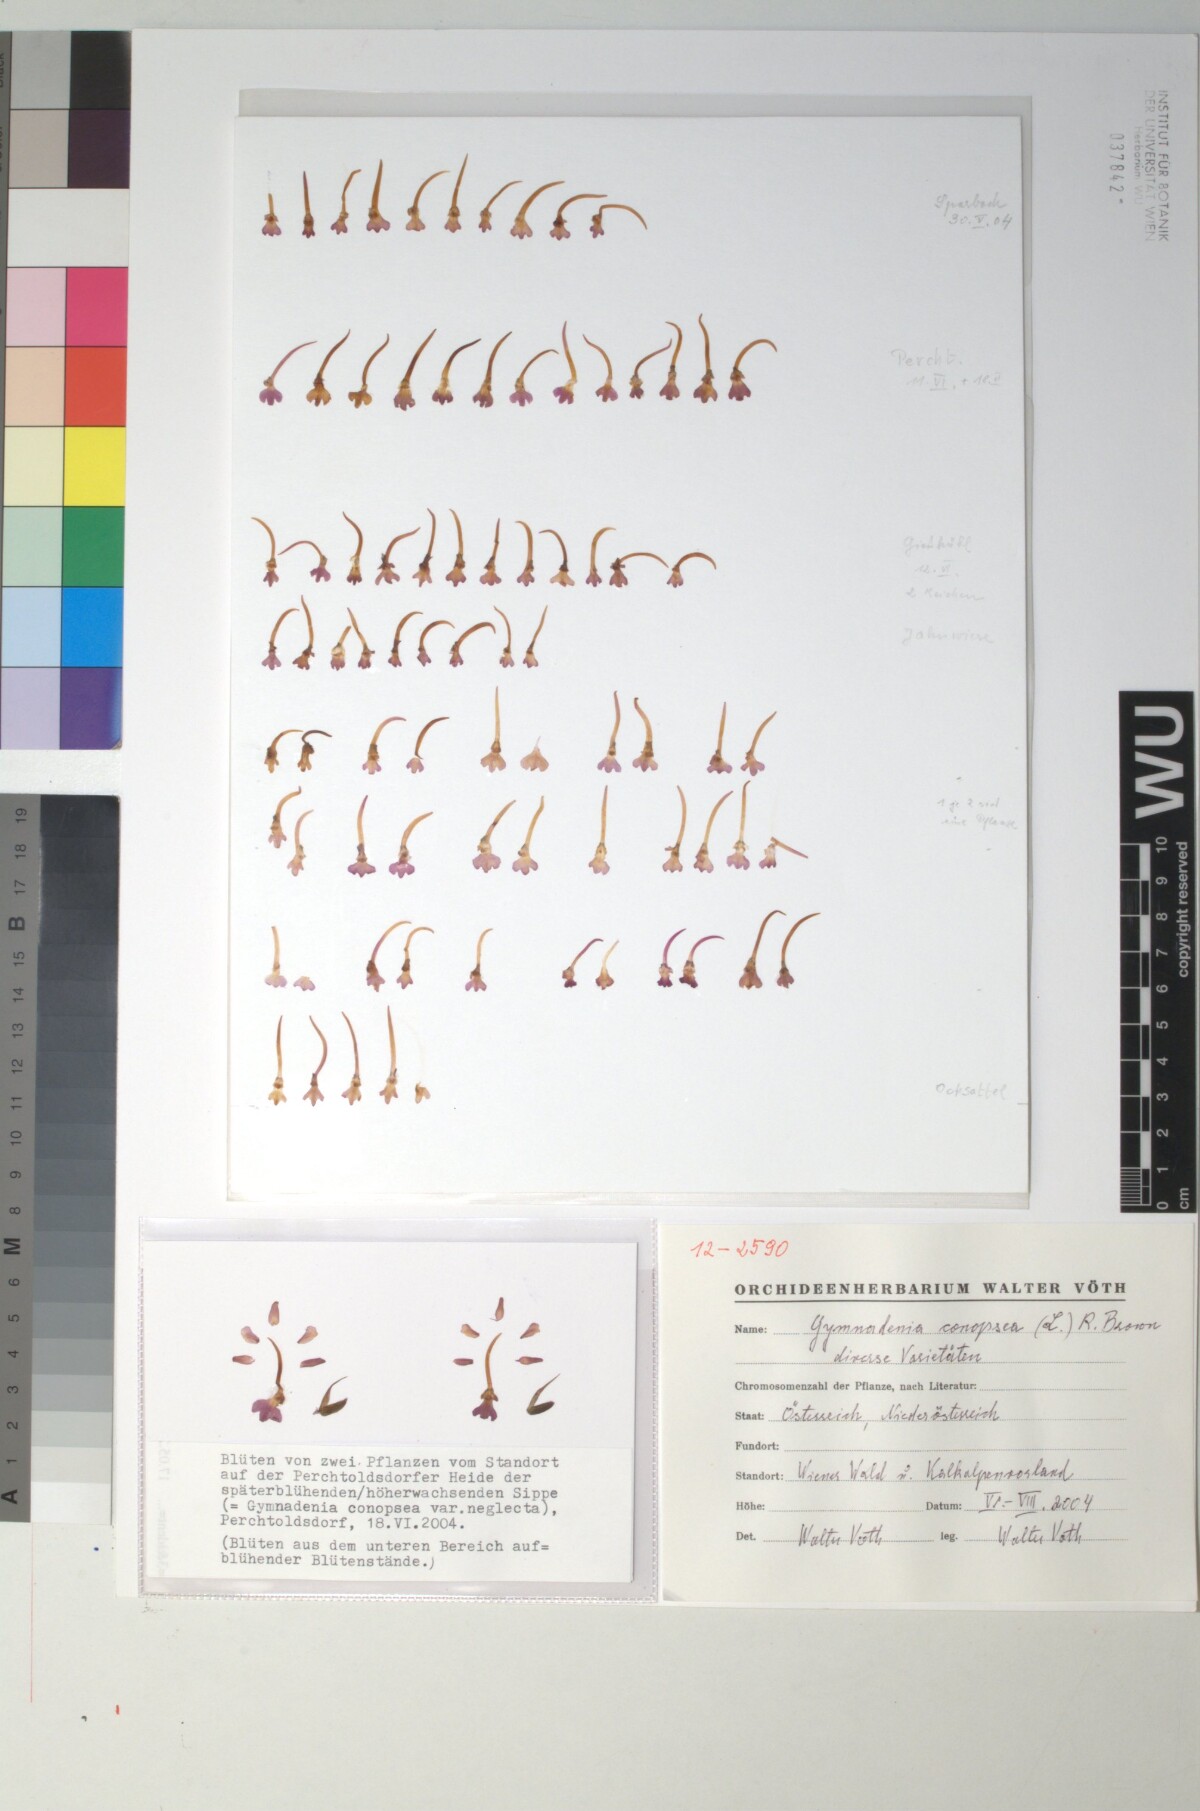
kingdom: Plantae
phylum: Tracheophyta
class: Liliopsida
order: Asparagales
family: Orchidaceae
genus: Gymnadenia
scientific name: Gymnadenia conopsea
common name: Fragrant orchid
